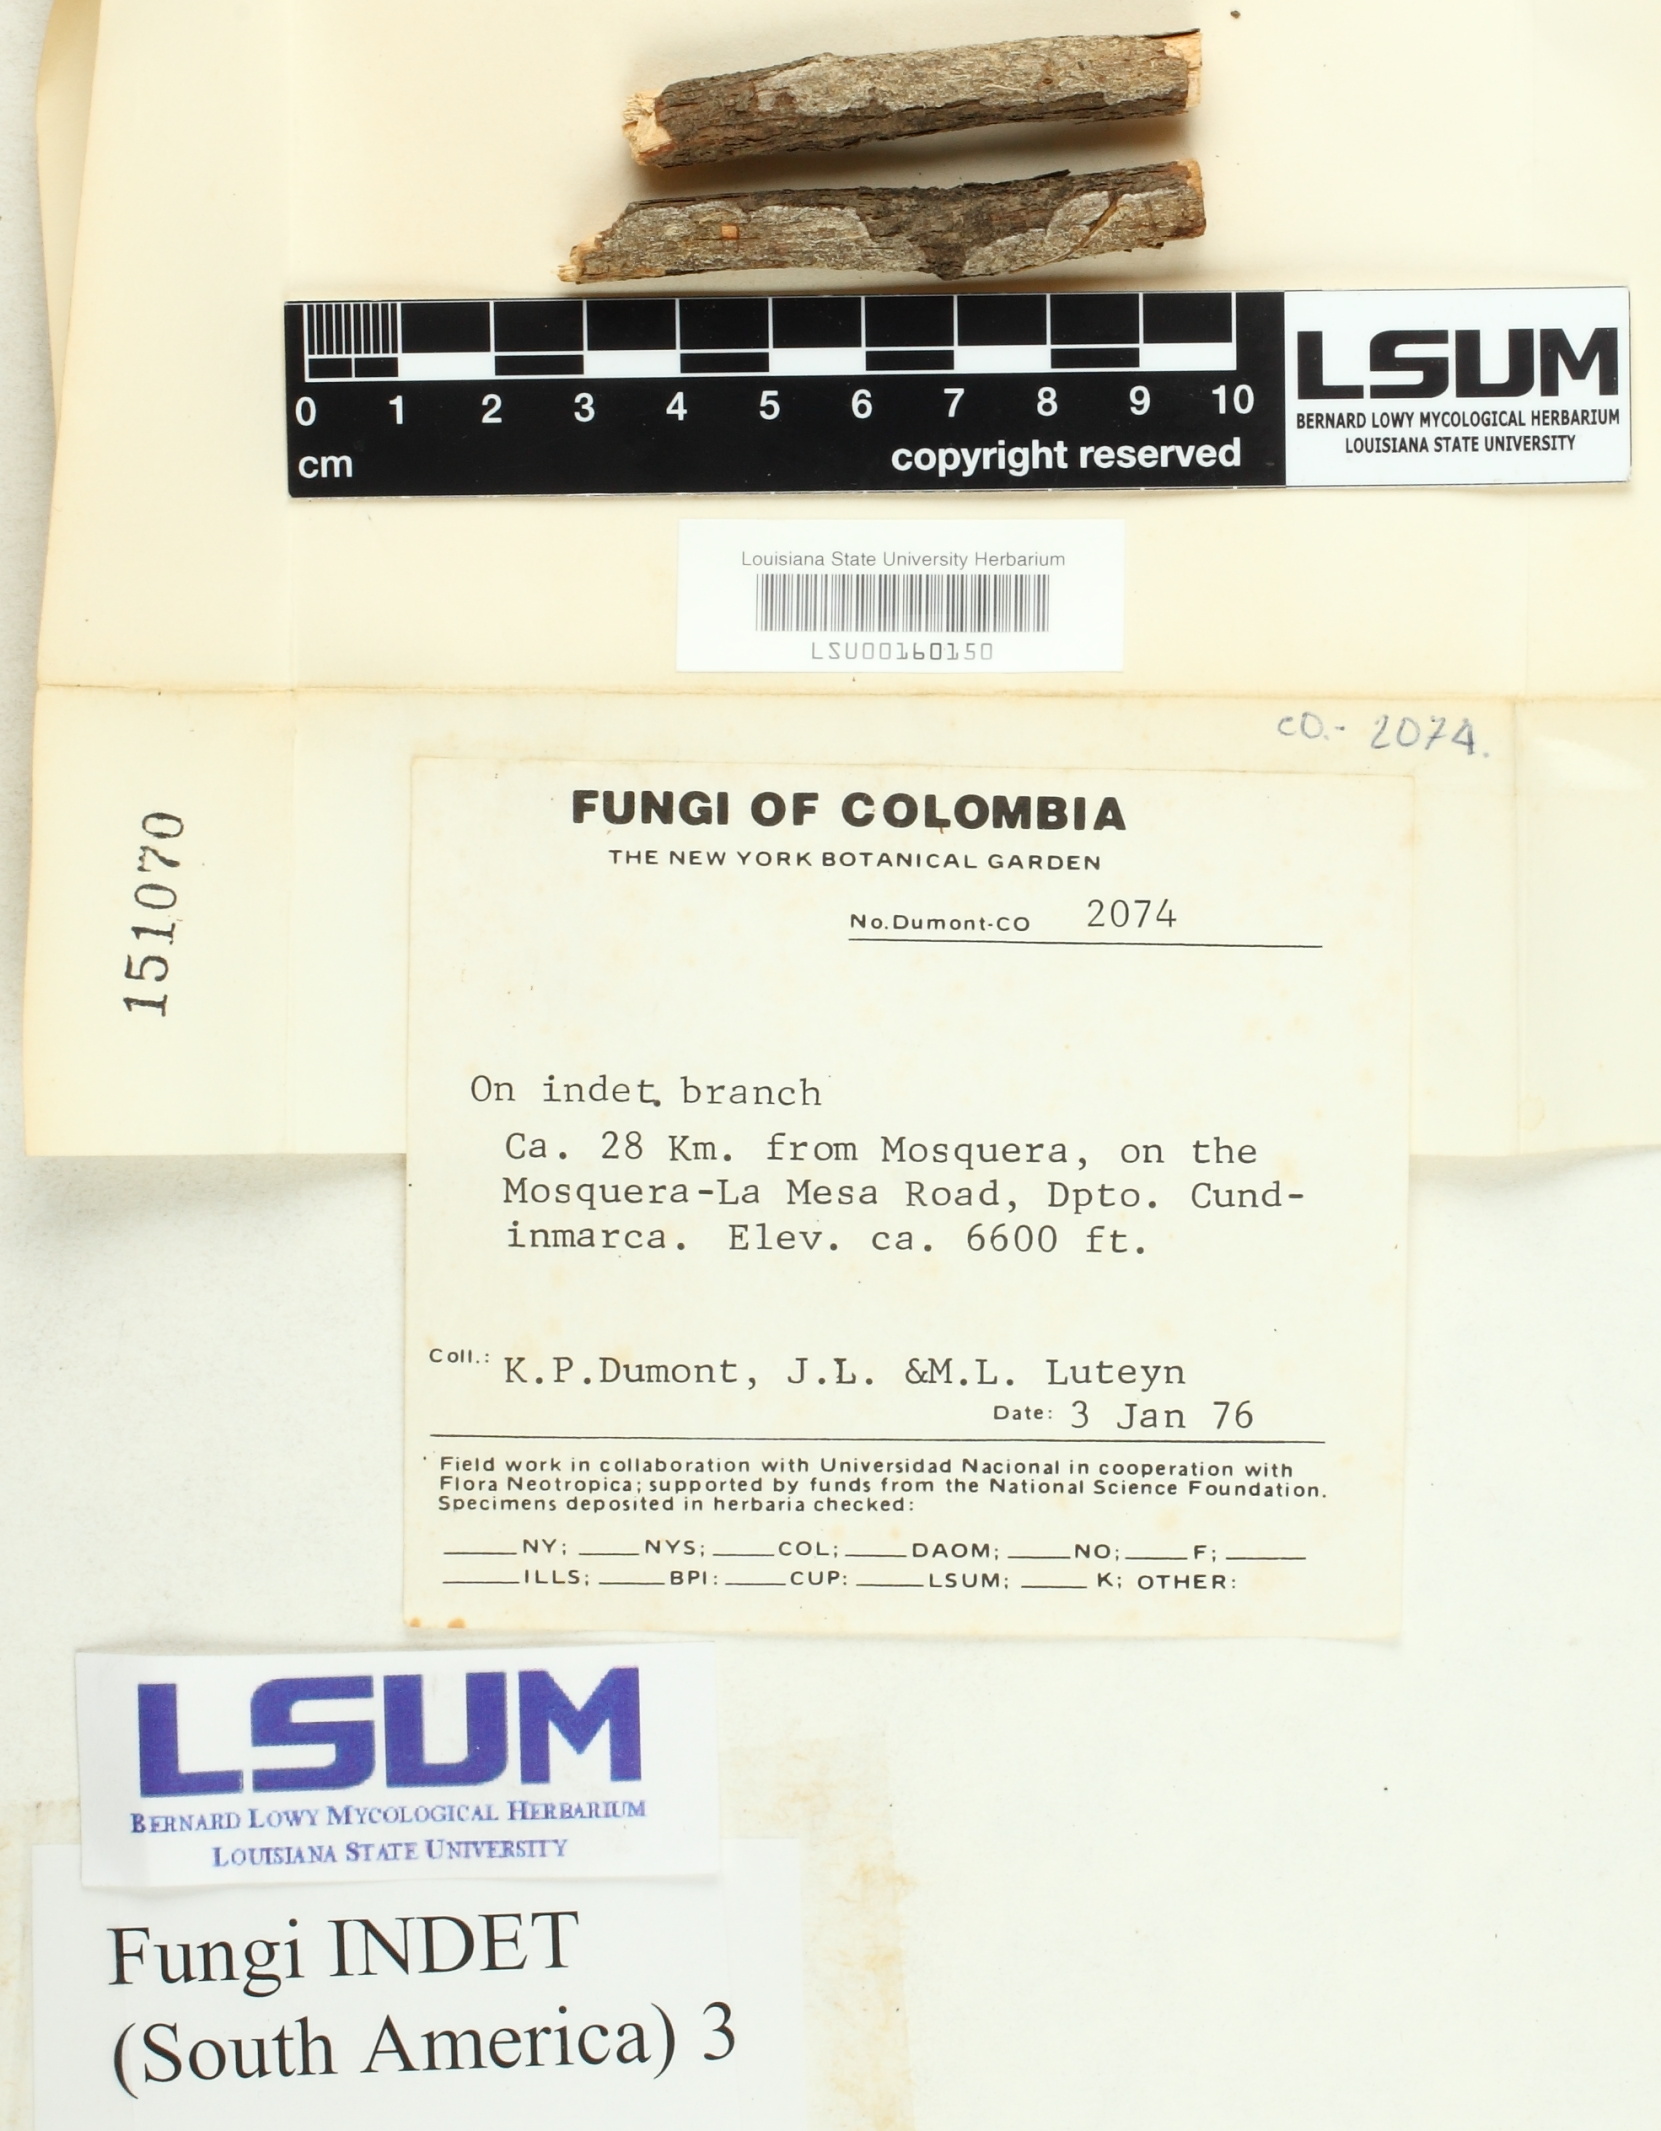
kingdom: Fungi
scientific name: Fungi
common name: Fungi
